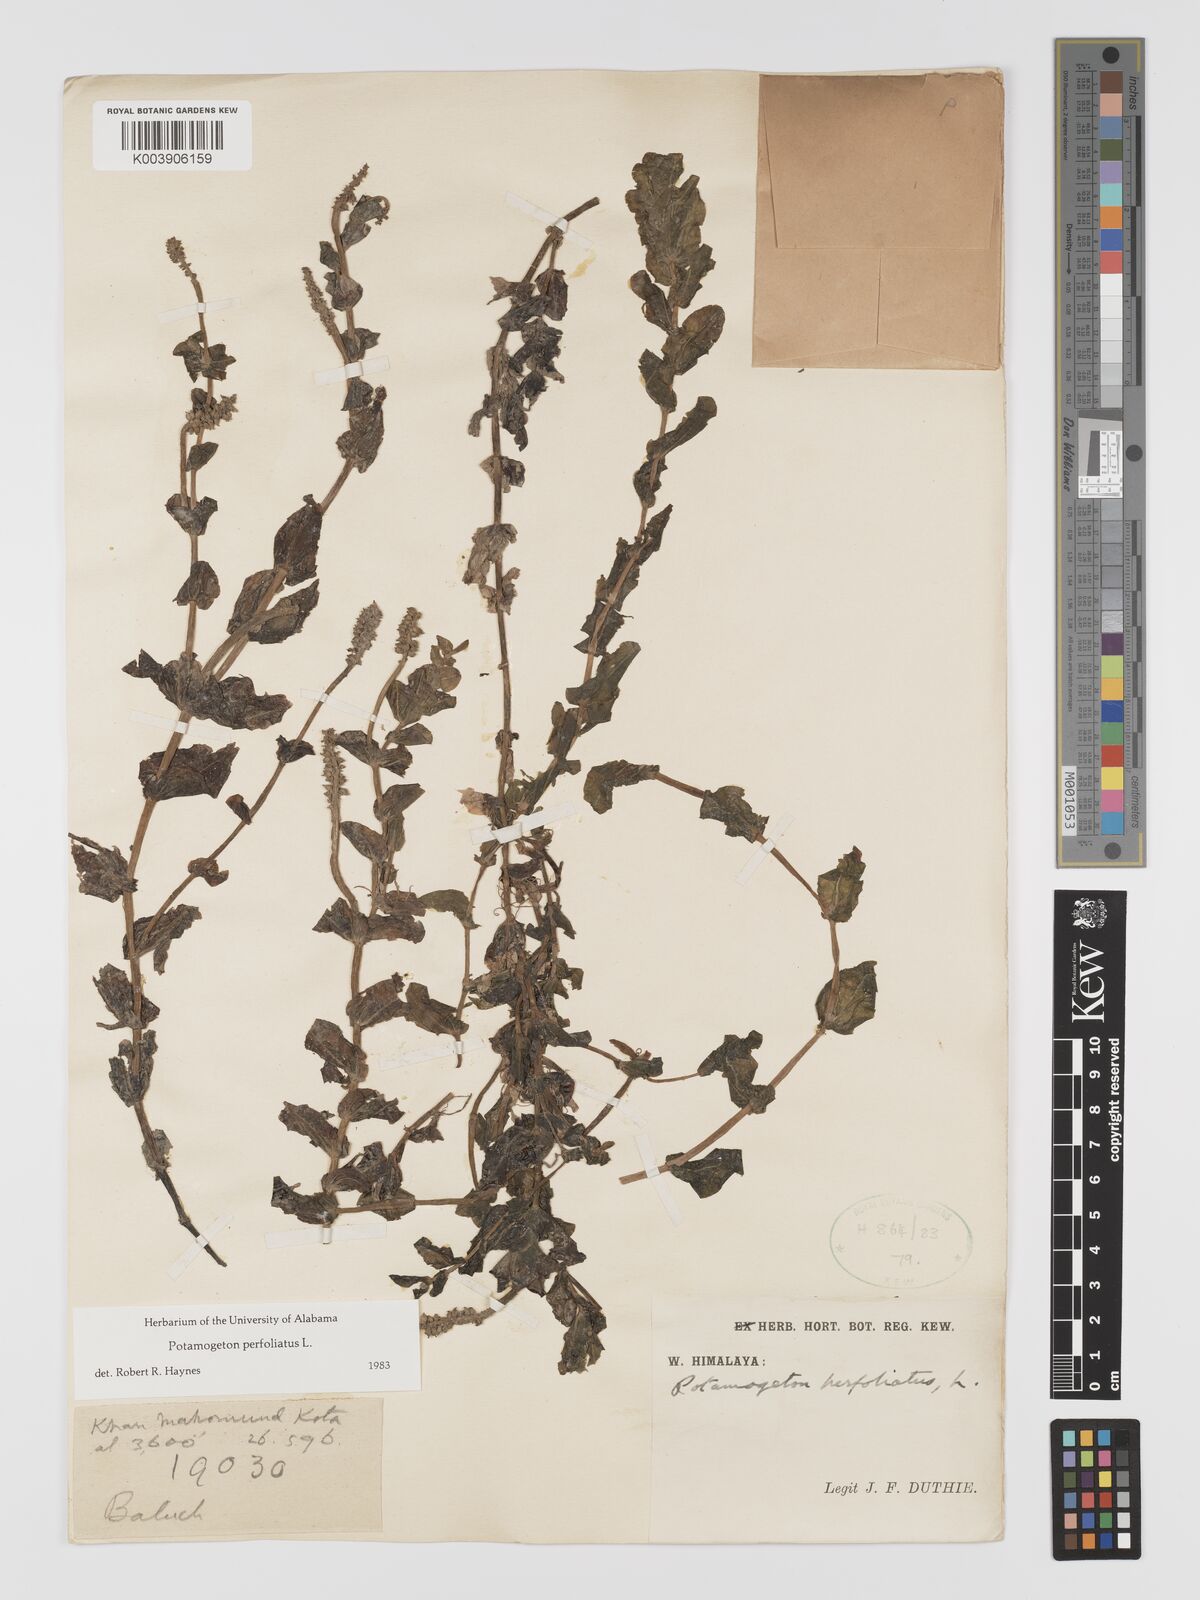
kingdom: Plantae
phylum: Tracheophyta
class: Liliopsida
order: Alismatales
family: Potamogetonaceae
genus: Stuckenia
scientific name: Stuckenia pectinata
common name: Sago pondweed
